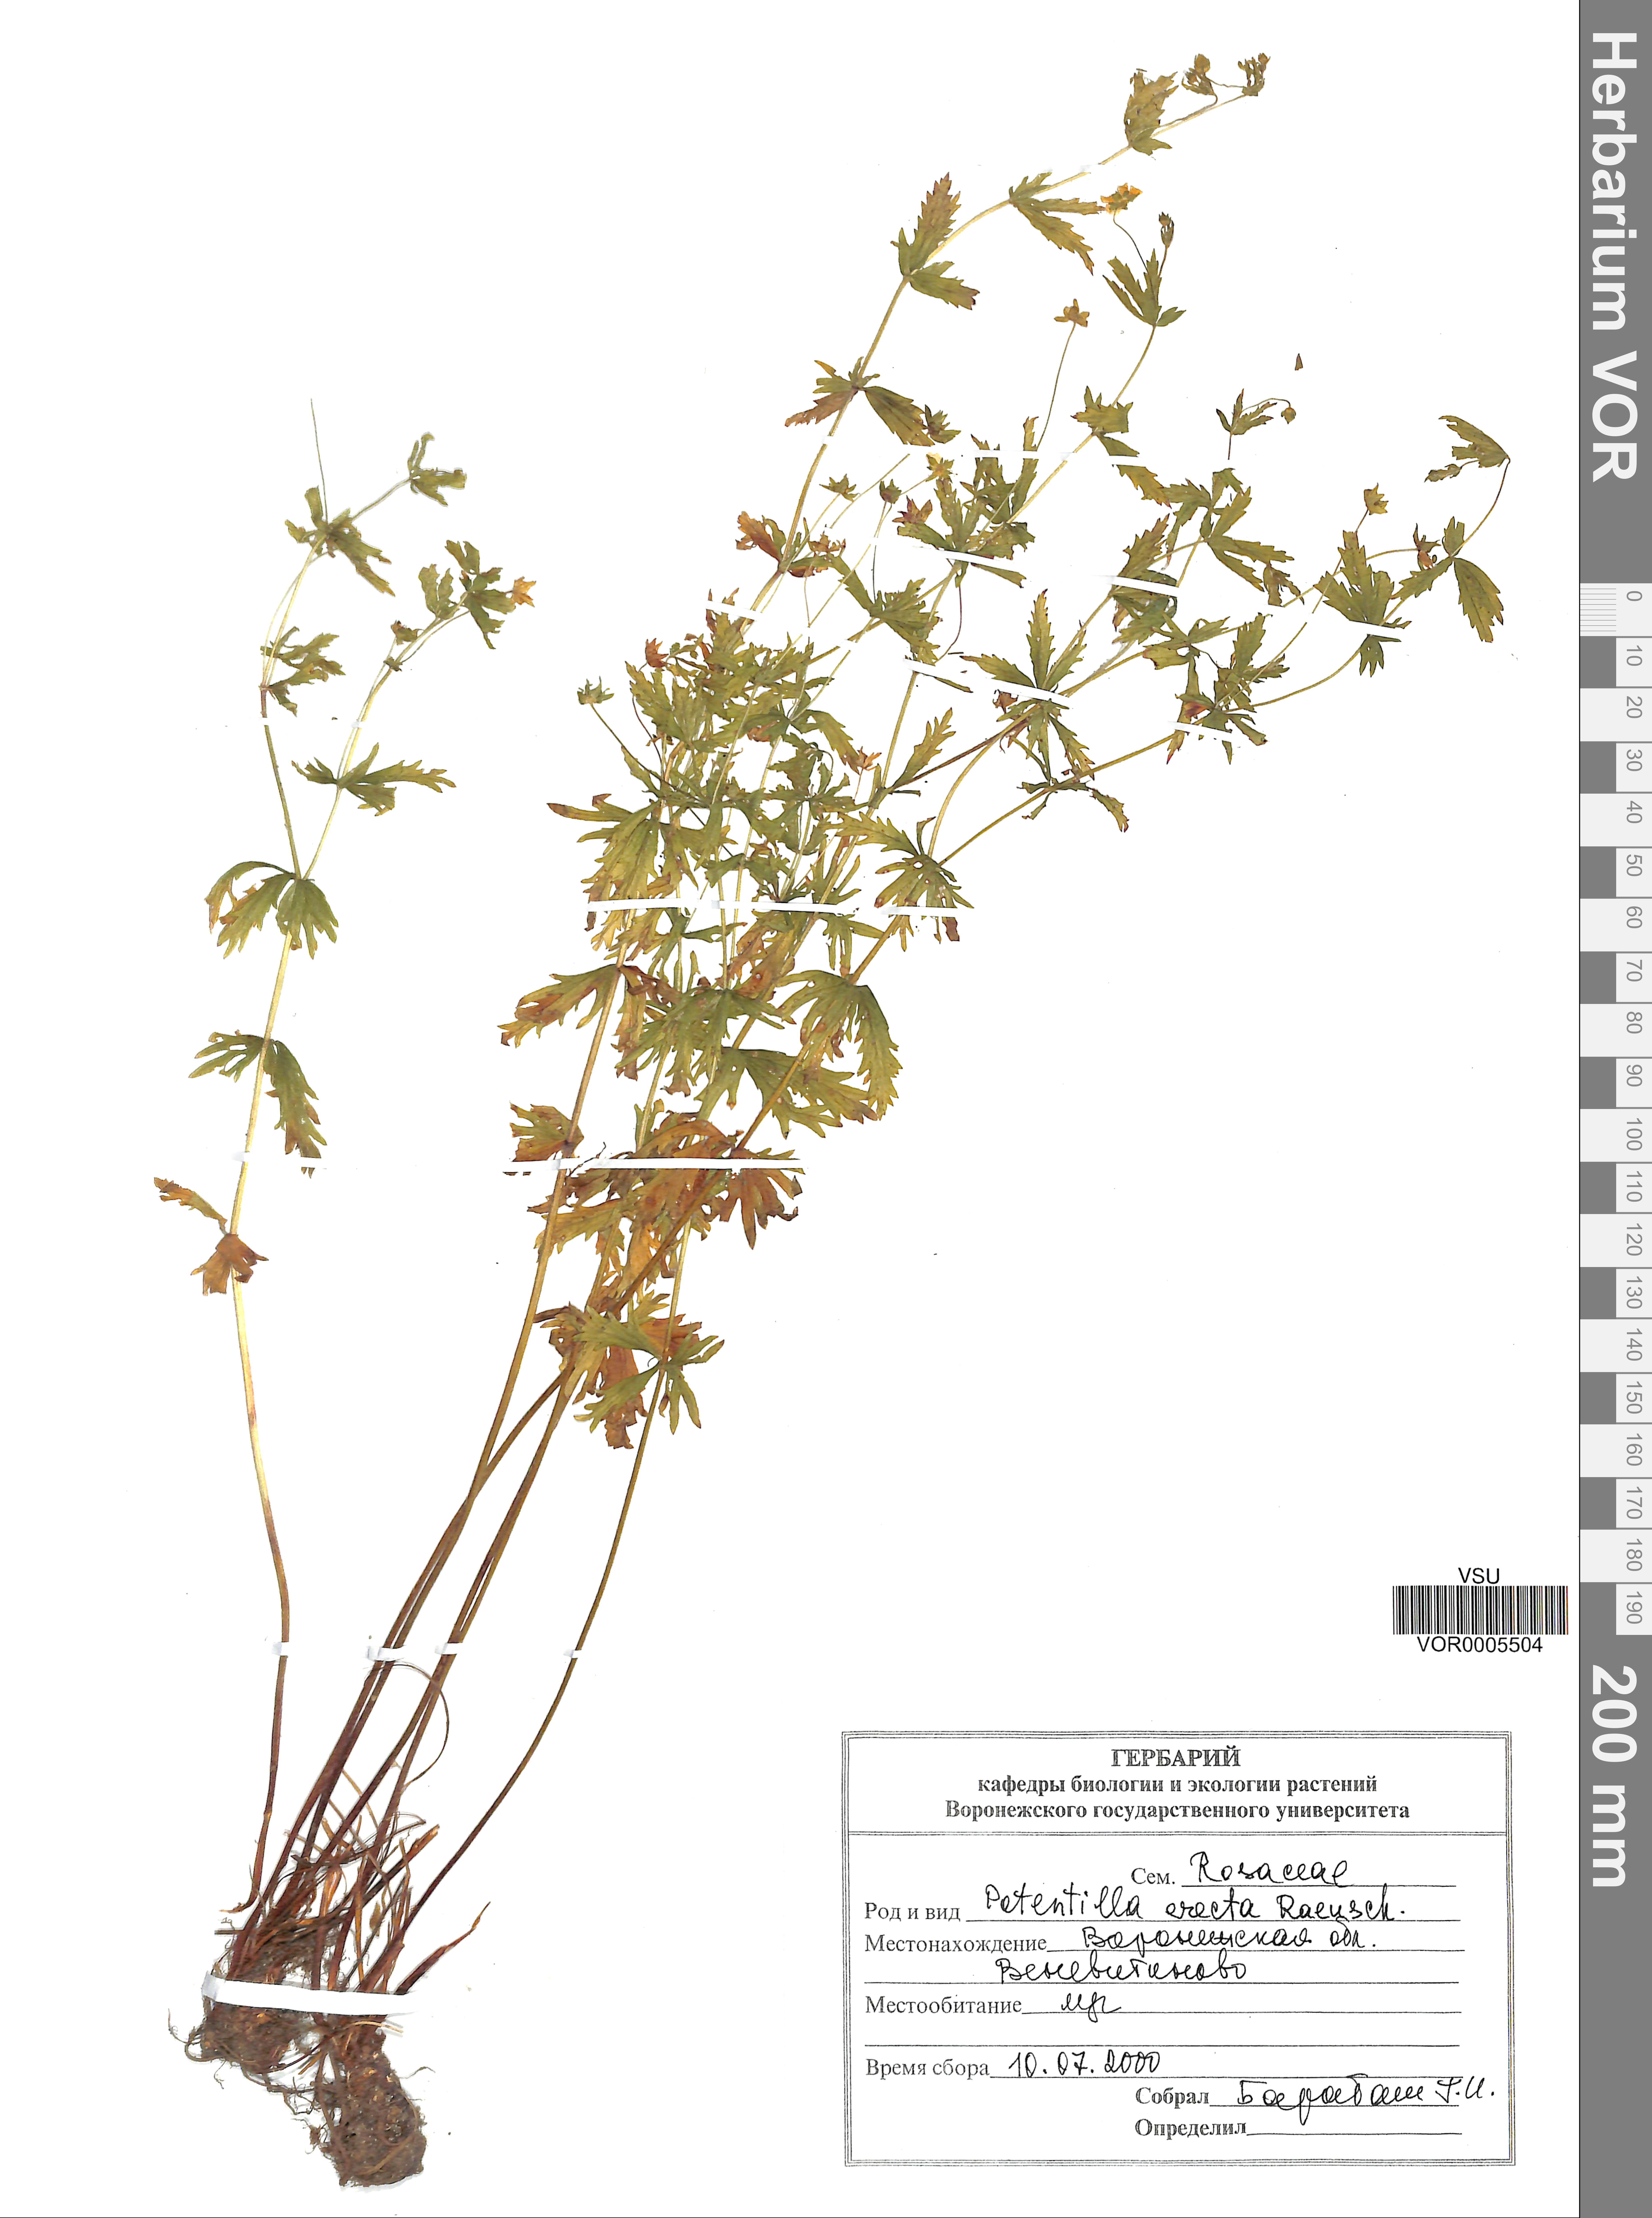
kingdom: Plantae
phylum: Tracheophyta
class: Magnoliopsida
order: Rosales
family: Rosaceae
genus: Potentilla
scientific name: Potentilla erecta
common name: Tormentil
